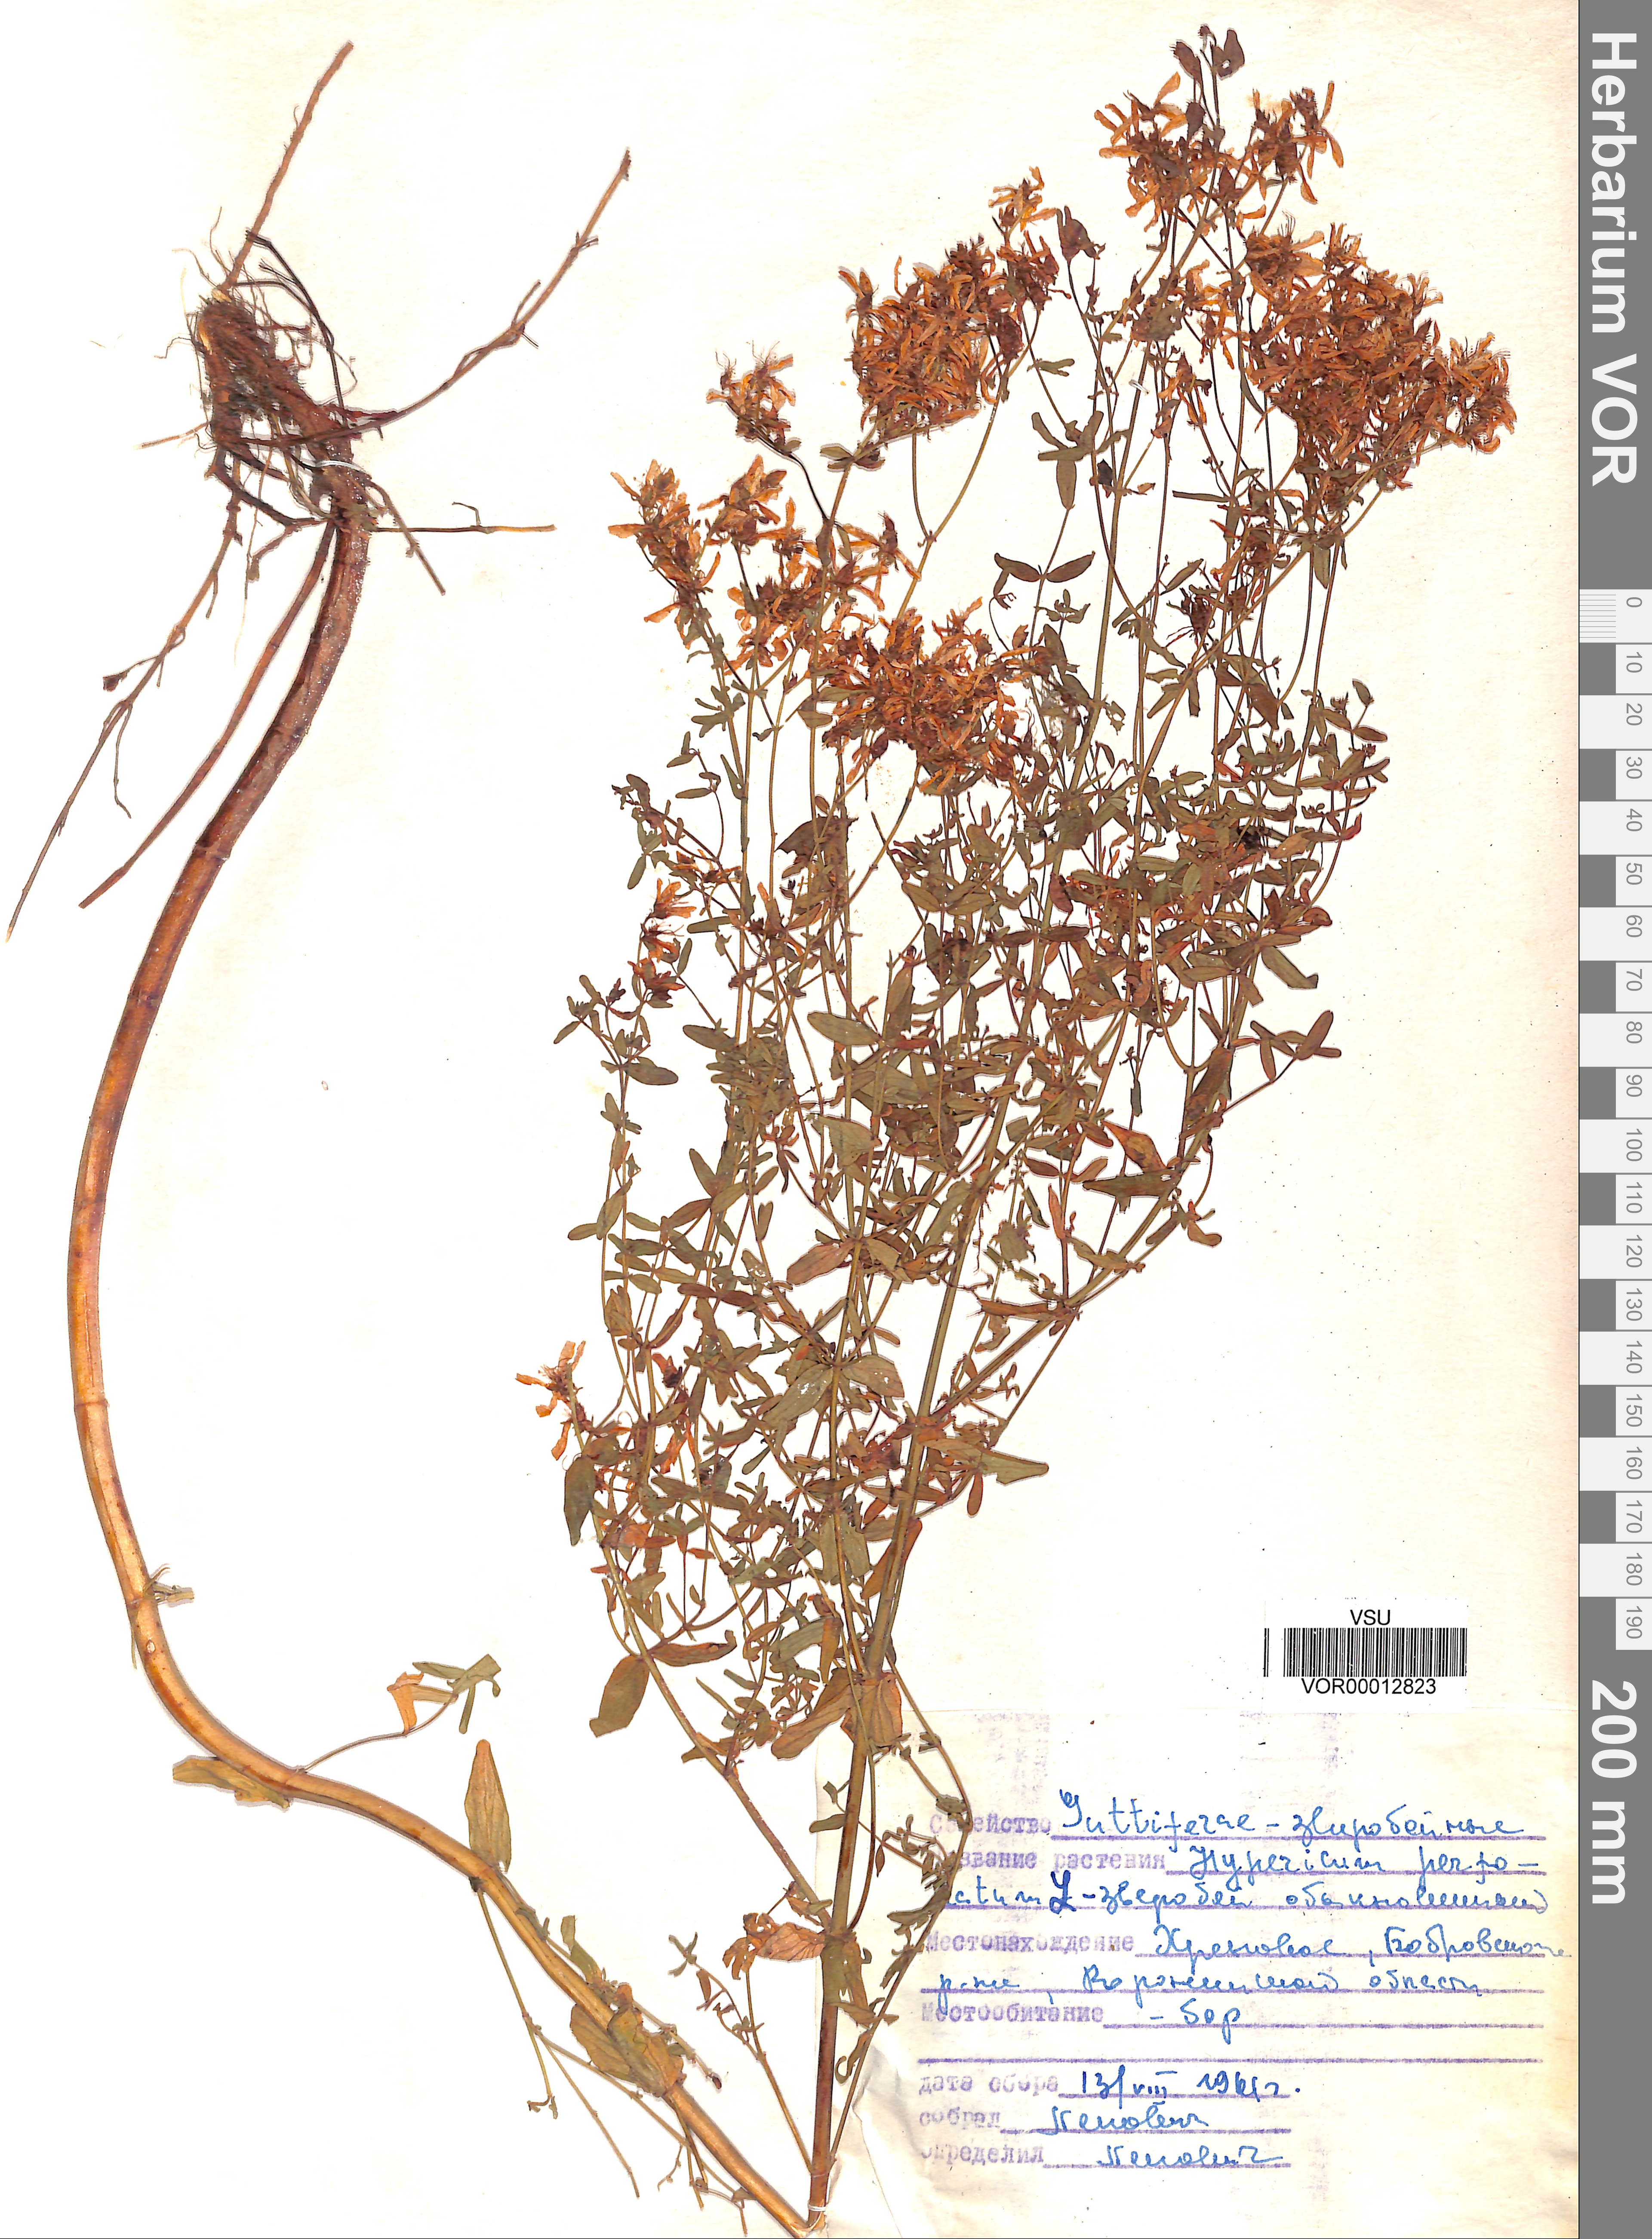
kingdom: Plantae
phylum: Tracheophyta
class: Magnoliopsida
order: Malpighiales
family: Hypericaceae
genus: Hypericum
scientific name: Hypericum perforatum
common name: Common st. johnswort
